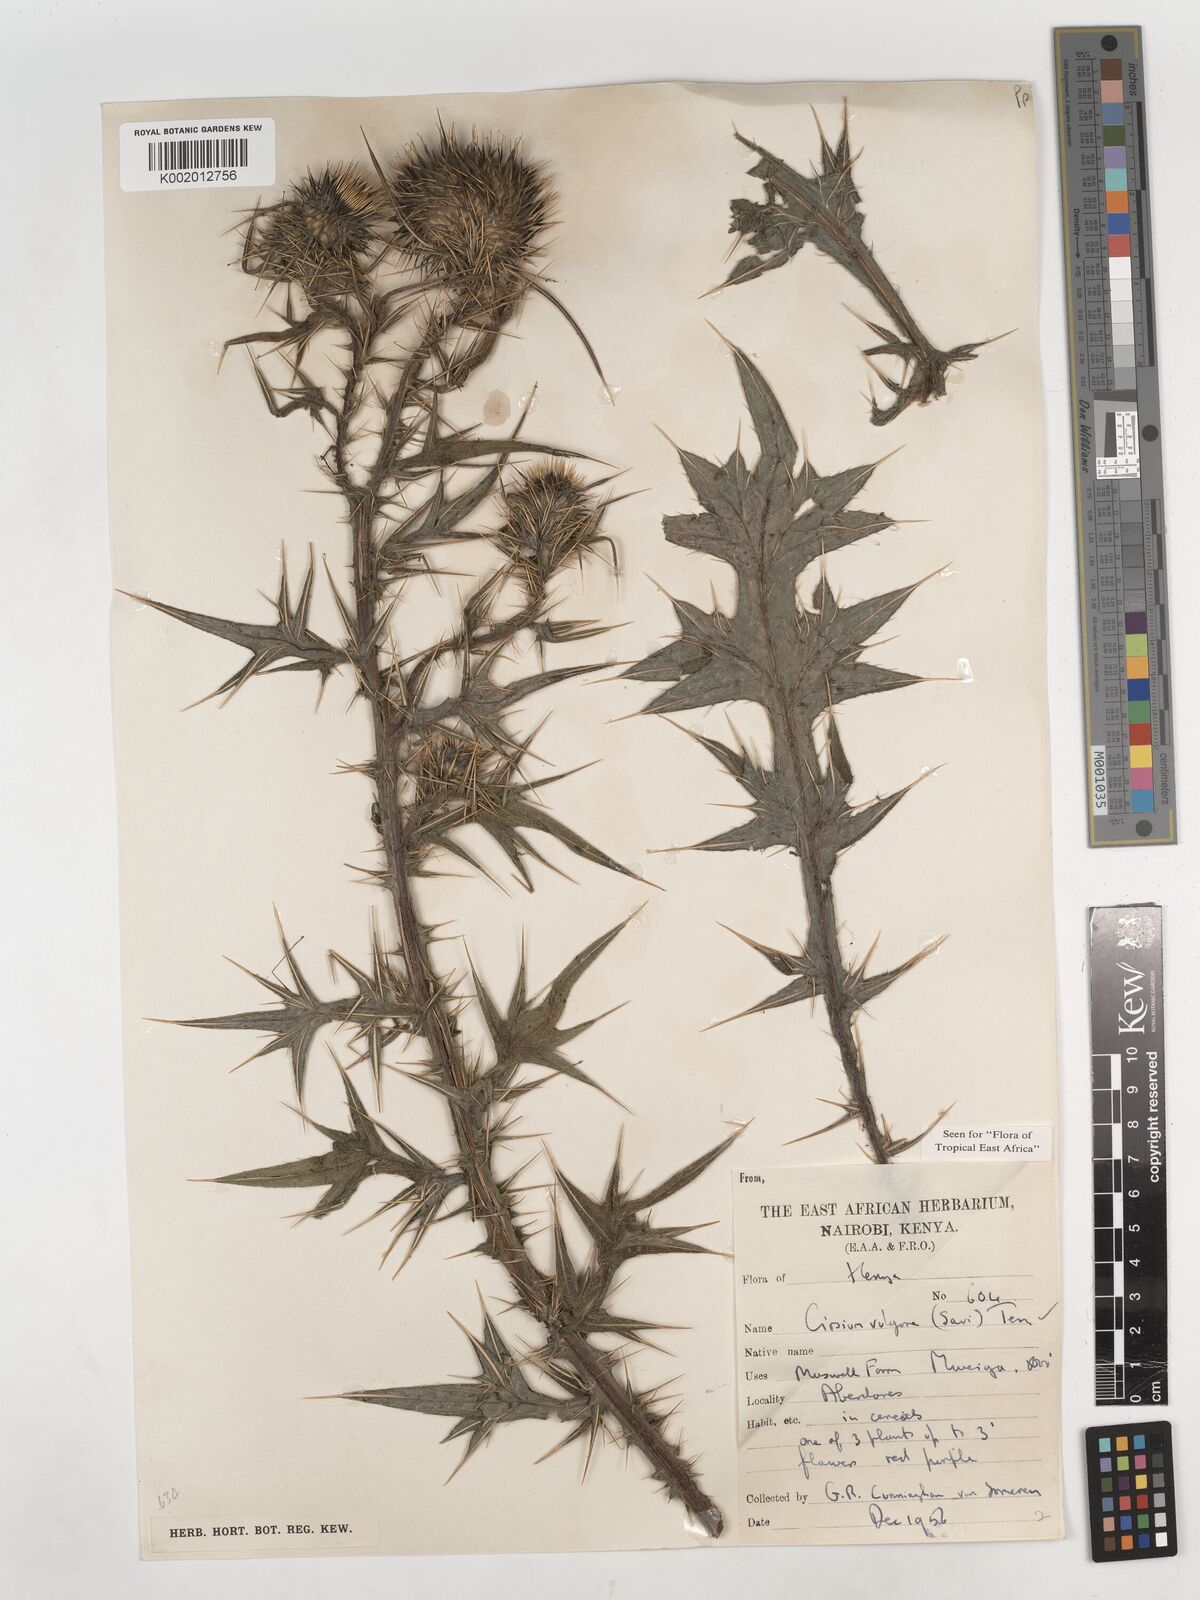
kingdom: Plantae
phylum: Tracheophyta
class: Magnoliopsida
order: Asterales
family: Asteraceae
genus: Cirsium
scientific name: Cirsium vulgare
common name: Bull thistle
